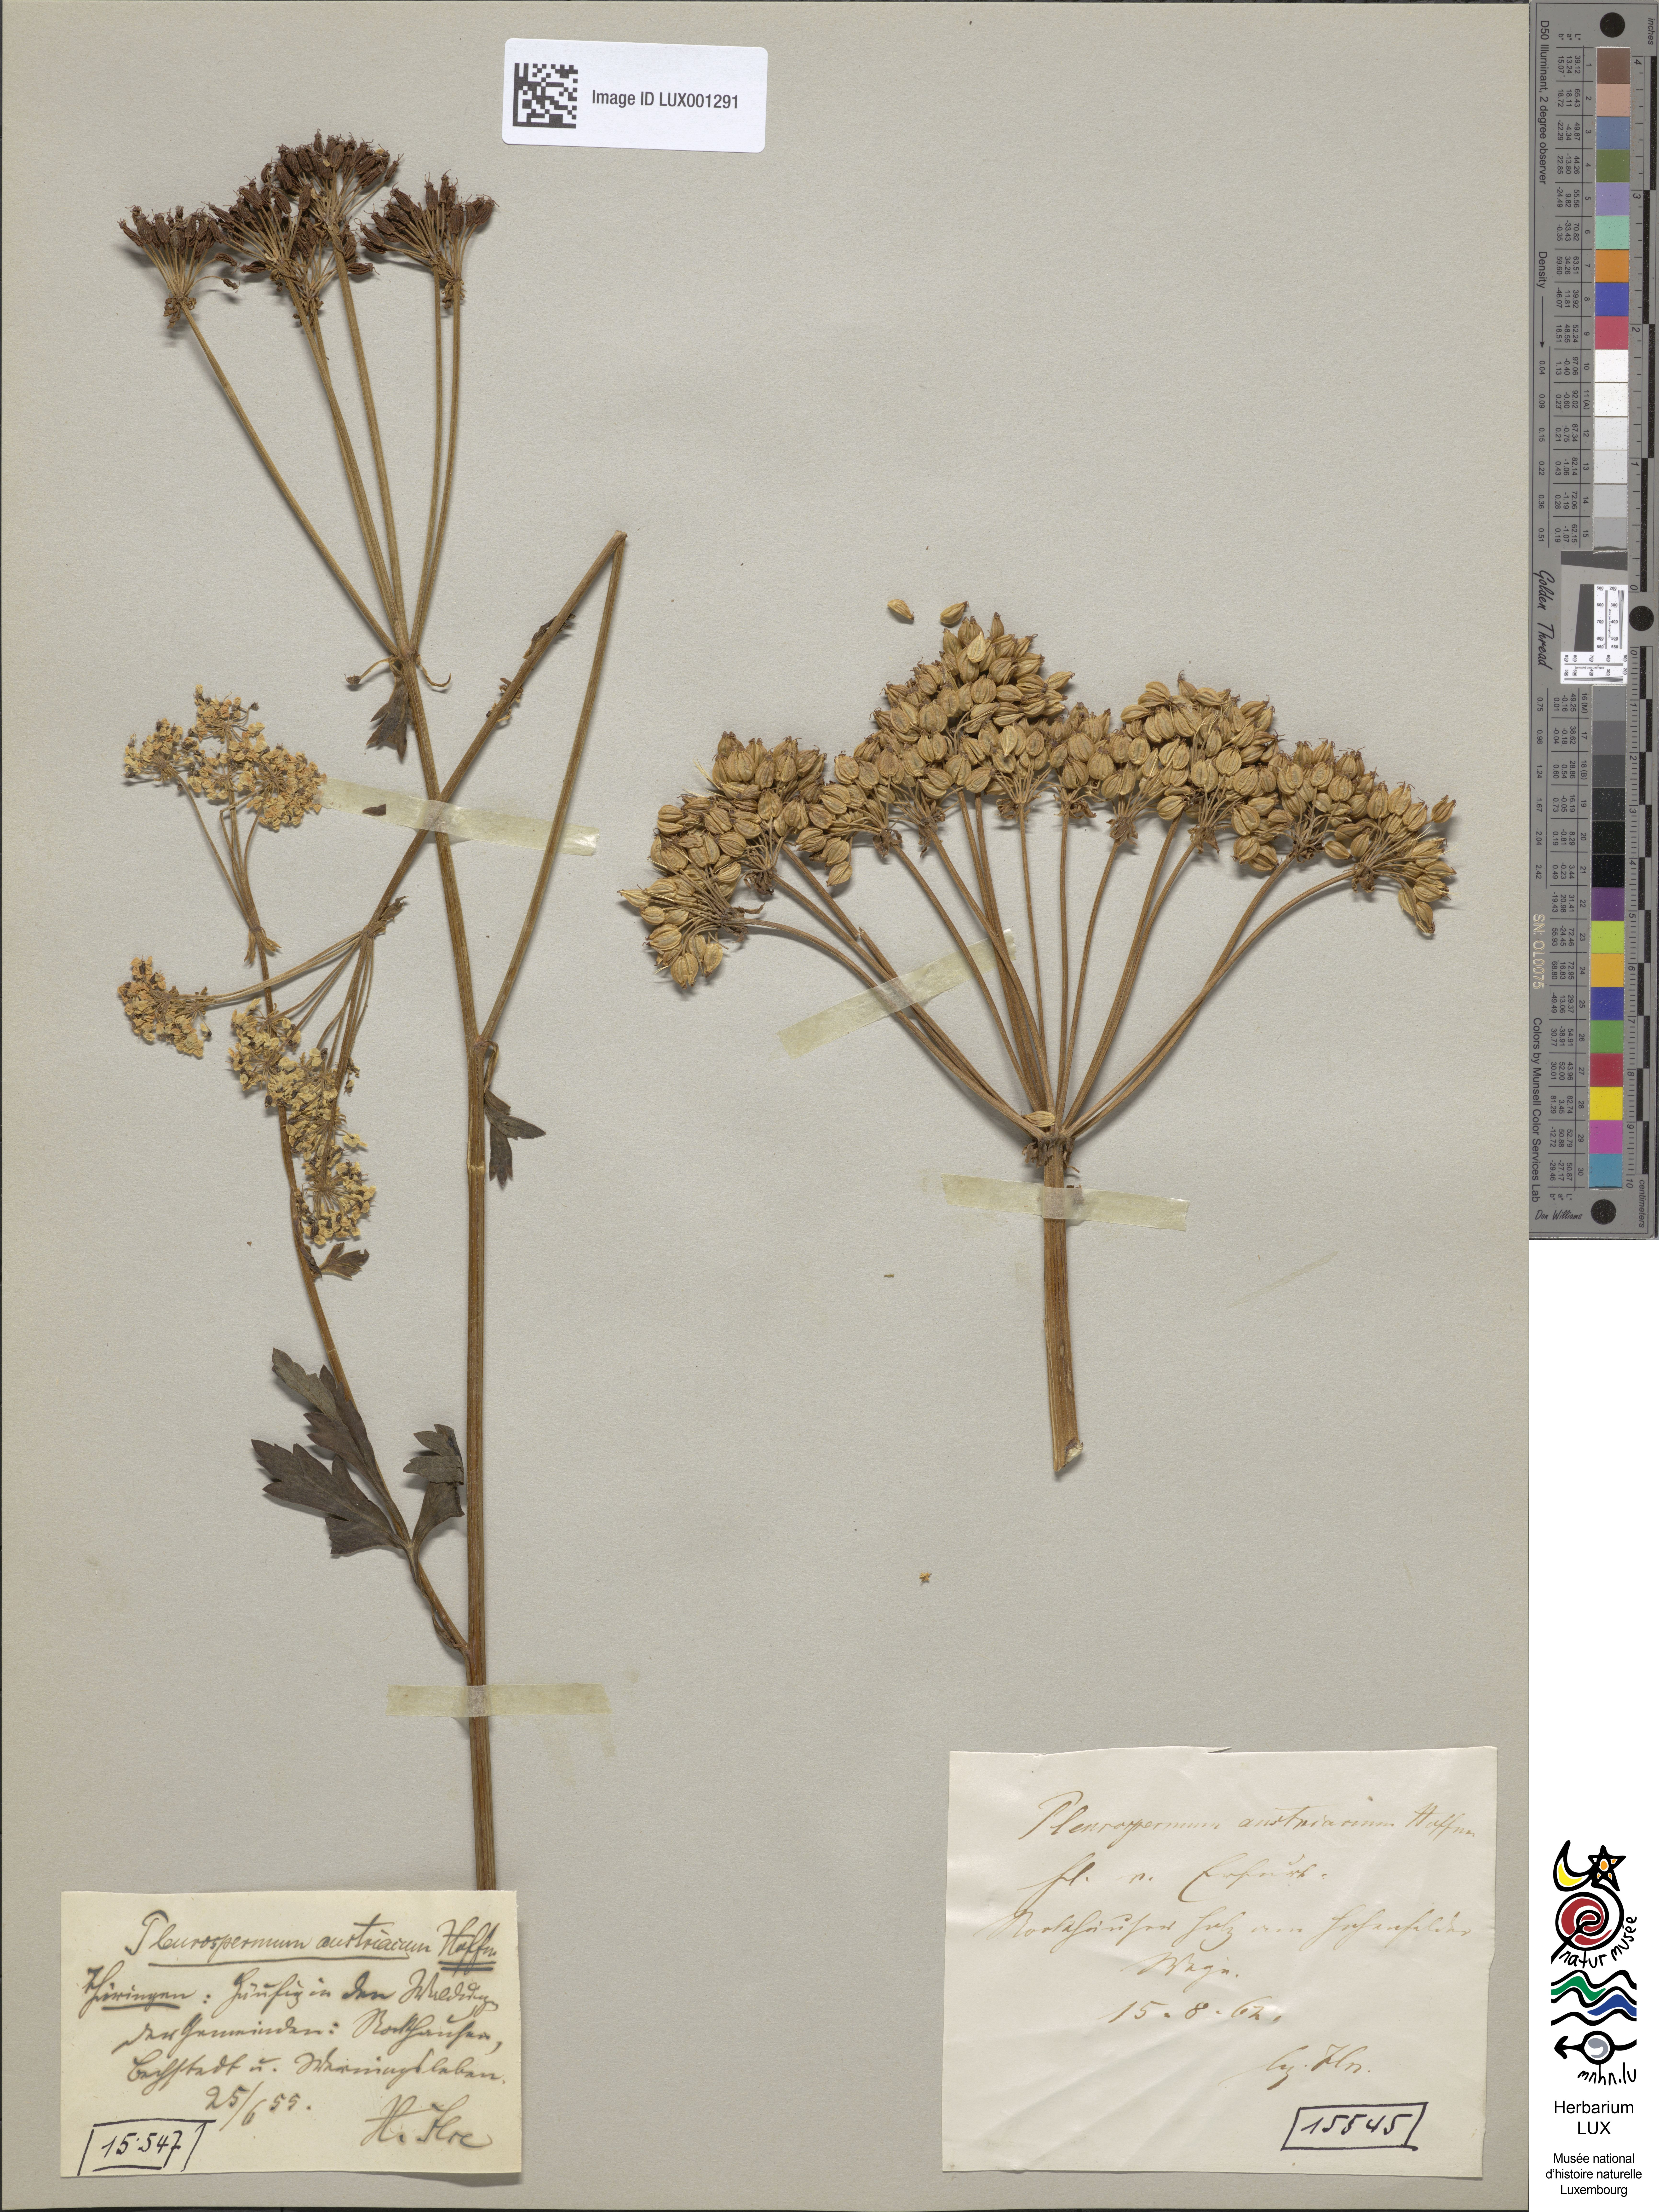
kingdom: Plantae
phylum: Tracheophyta
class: Magnoliopsida
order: Apiales
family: Apiaceae
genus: Pleurospermum
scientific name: Pleurospermum austriacum
